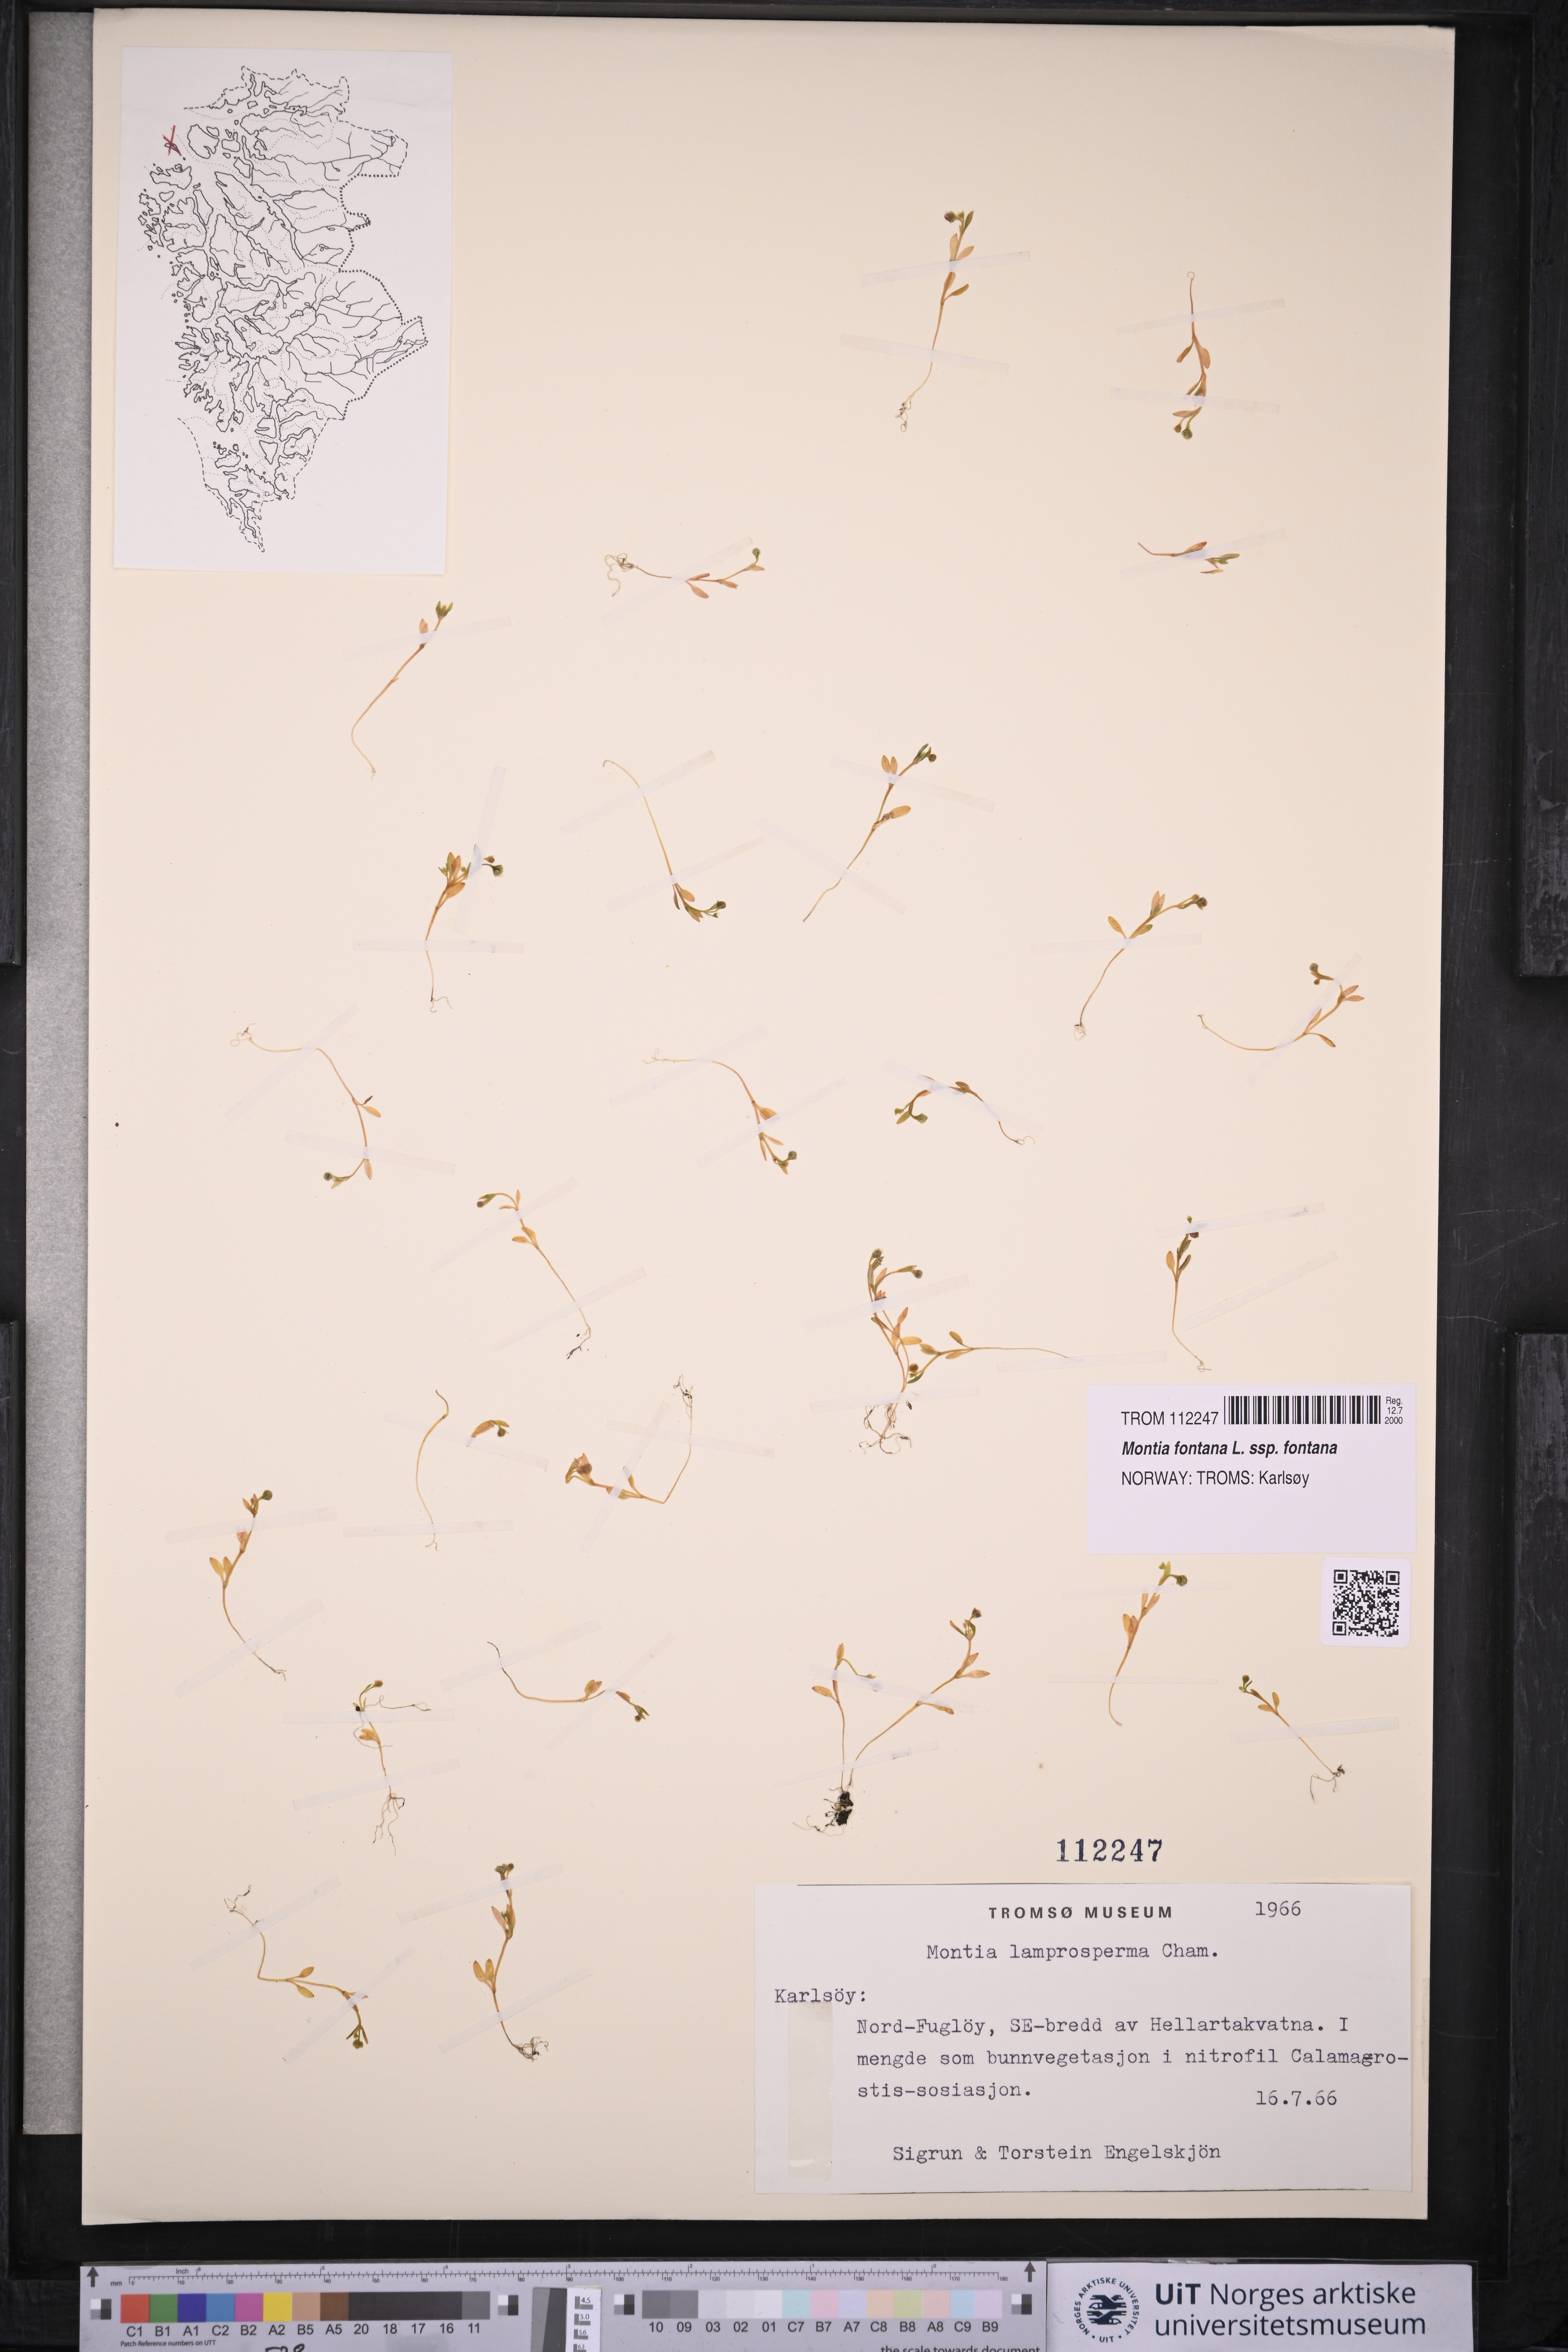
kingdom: Plantae
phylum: Tracheophyta
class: Magnoliopsida
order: Caryophyllales
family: Montiaceae
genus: Montia
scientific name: Montia fontana
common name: Blinks
